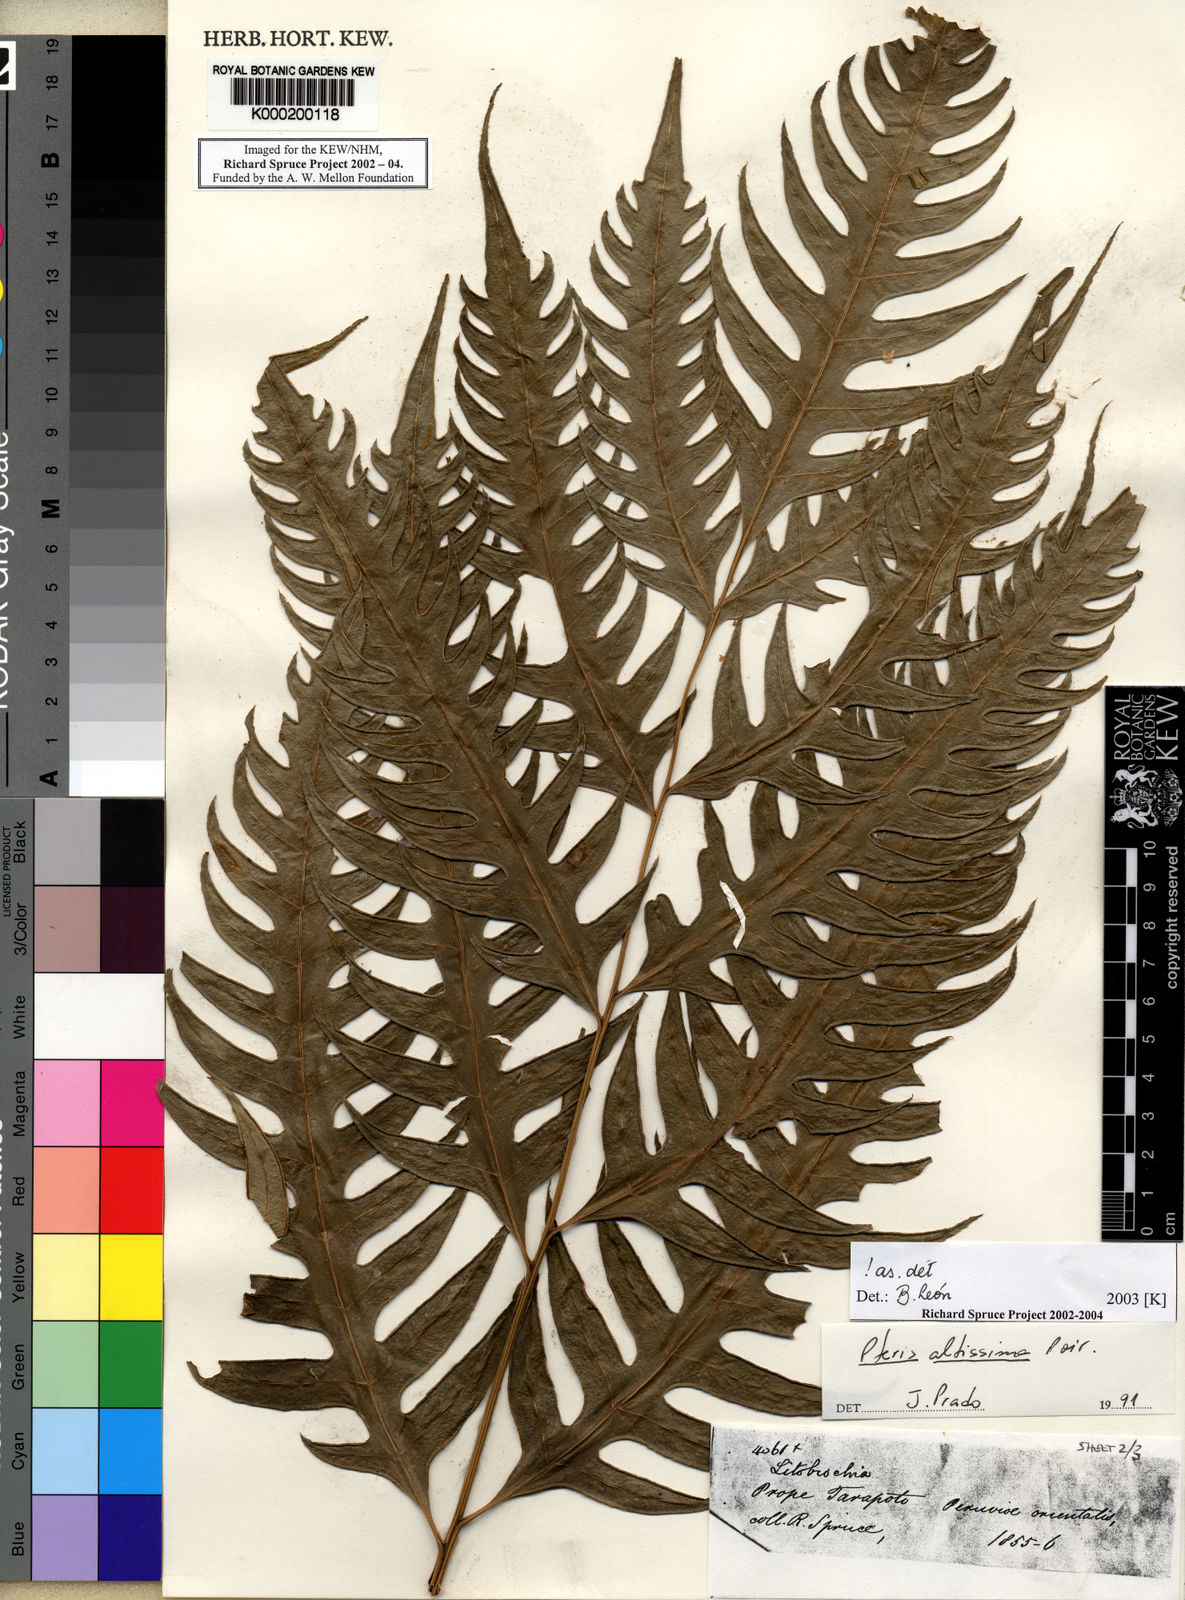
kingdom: Plantae
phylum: Tracheophyta
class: Polypodiopsida
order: Polypodiales
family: Pteridaceae
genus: Pteris
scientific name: Pteris altissima
